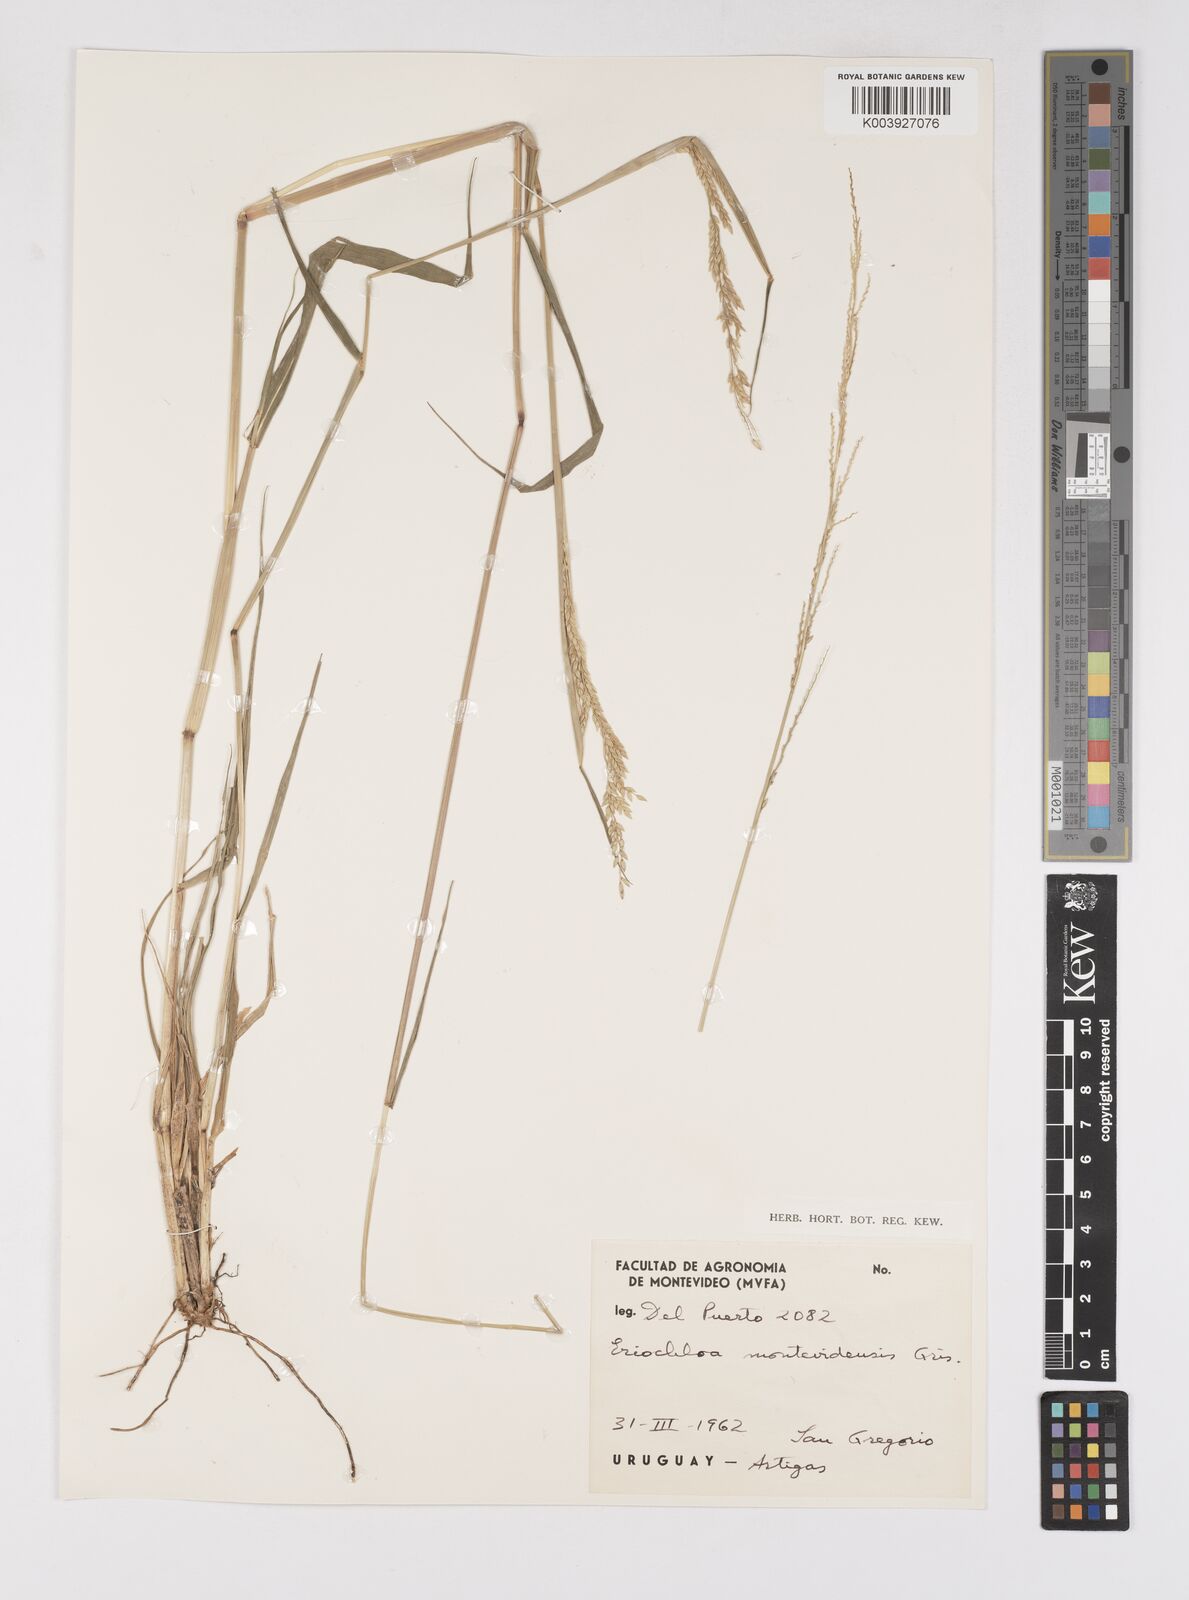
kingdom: Plantae
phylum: Tracheophyta
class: Liliopsida
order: Poales
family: Poaceae
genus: Eriochloa
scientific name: Eriochloa montevidensis
